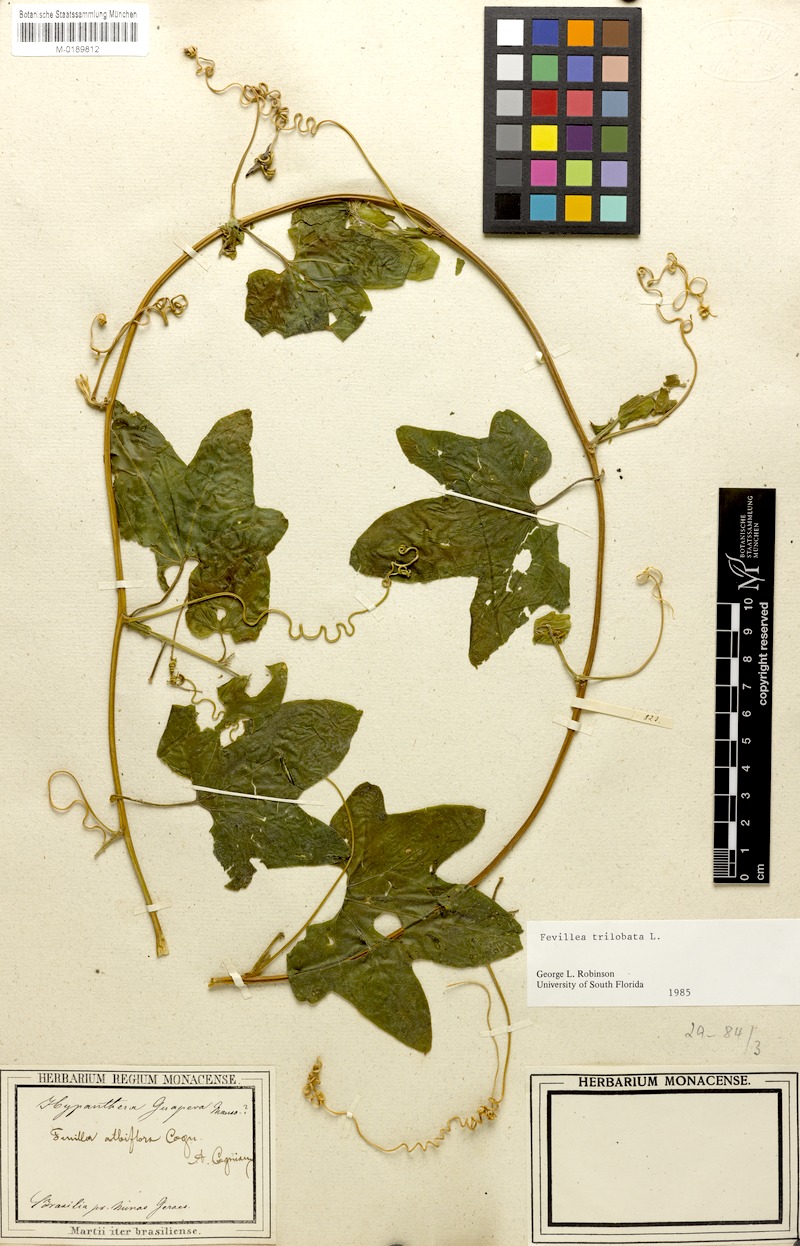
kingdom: Plantae
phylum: Tracheophyta
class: Magnoliopsida
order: Cucurbitales
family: Cucurbitaceae
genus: Fevillea
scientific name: Fevillea trilobata
